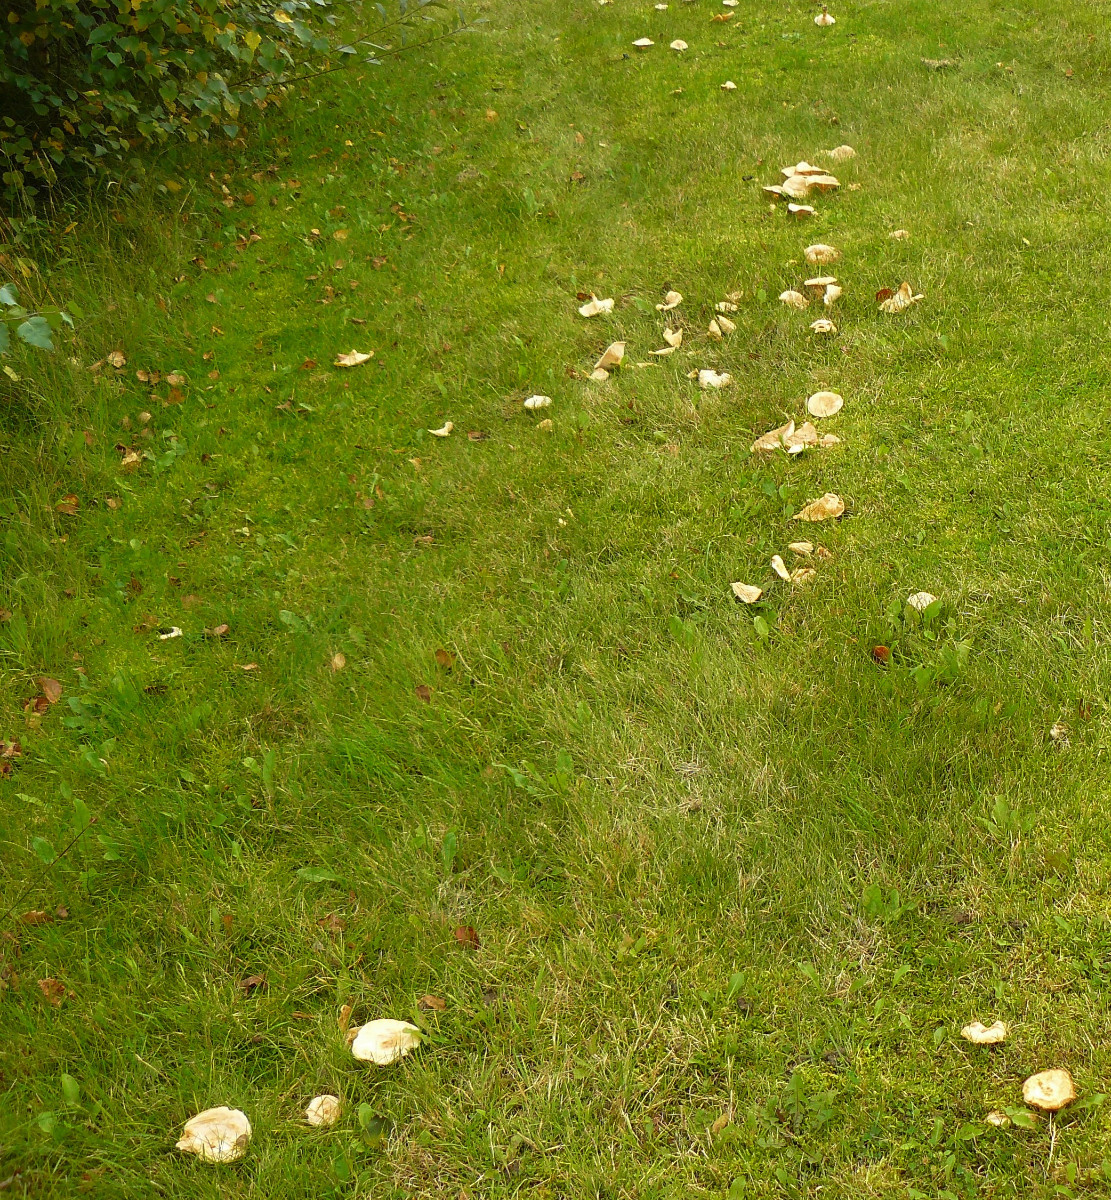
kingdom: Fungi
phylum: Basidiomycota
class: Agaricomycetes
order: Russulales
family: Russulaceae
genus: Lactarius
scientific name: Lactarius pubescens
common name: dunet mælkehat
